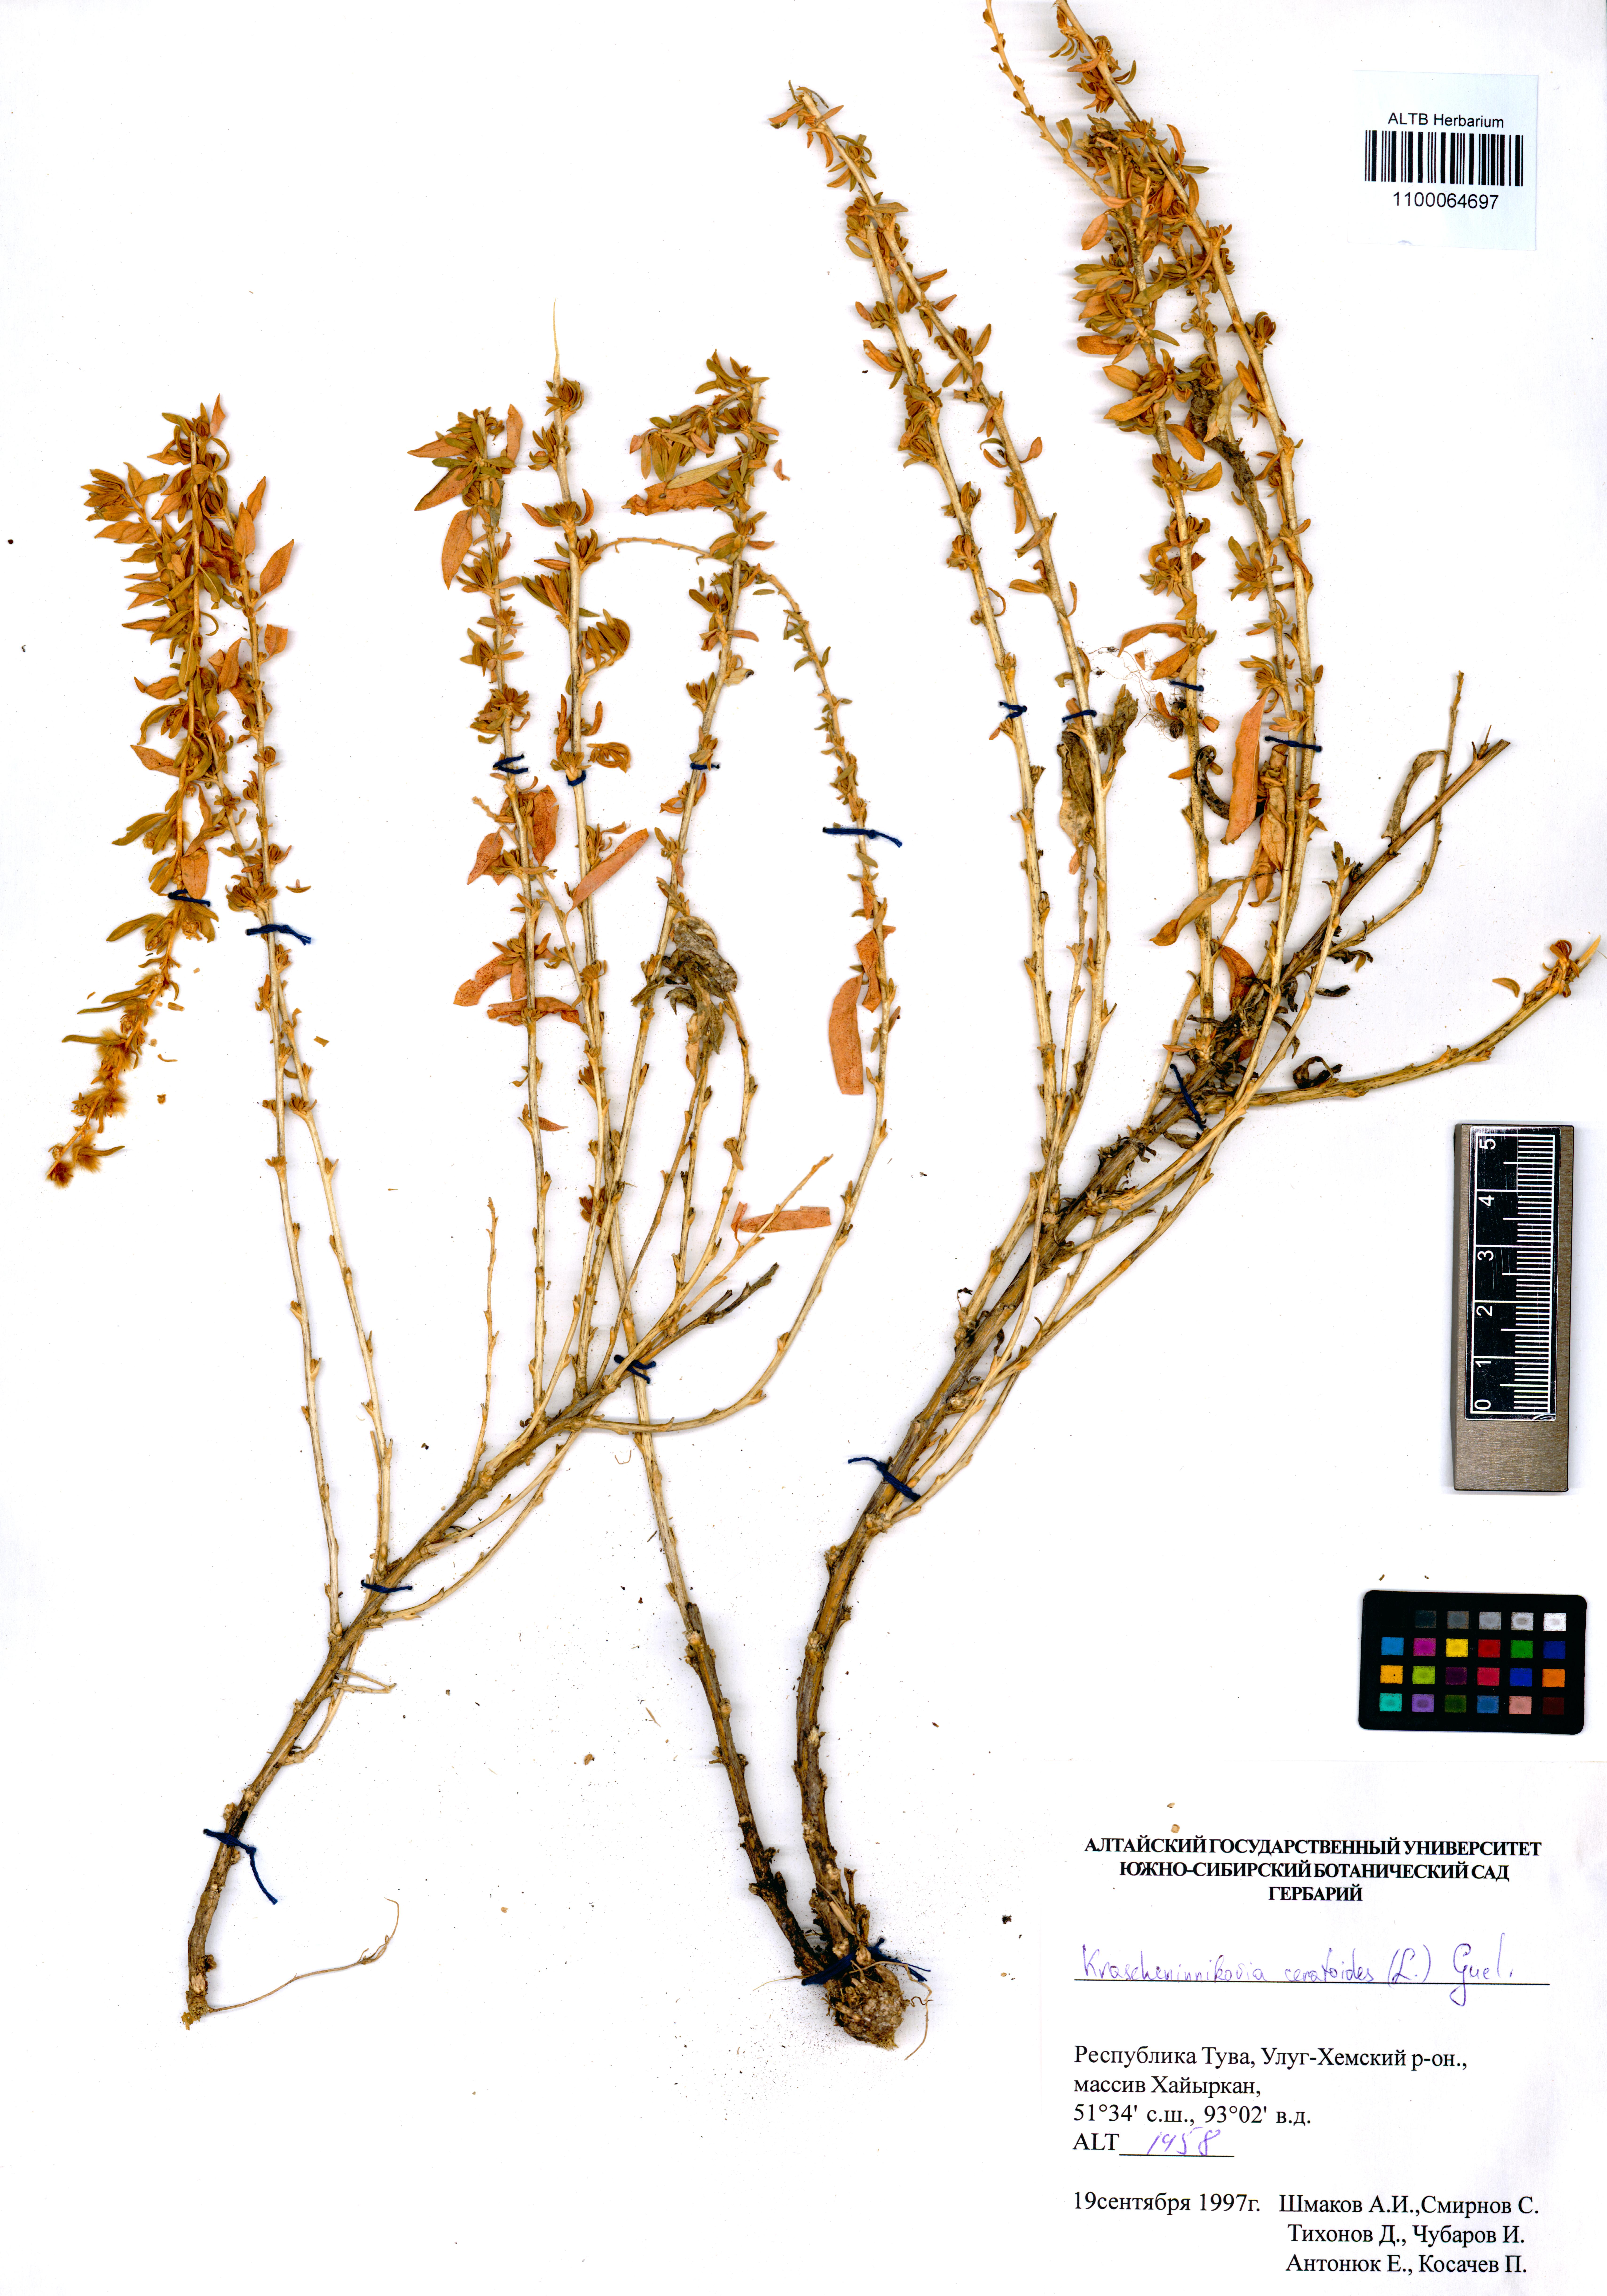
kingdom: Plantae
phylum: Tracheophyta
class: Magnoliopsida
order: Caryophyllales
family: Amaranthaceae
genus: Krascheninnikovia
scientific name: Krascheninnikovia ceratoides
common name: Pamirian winterfat
